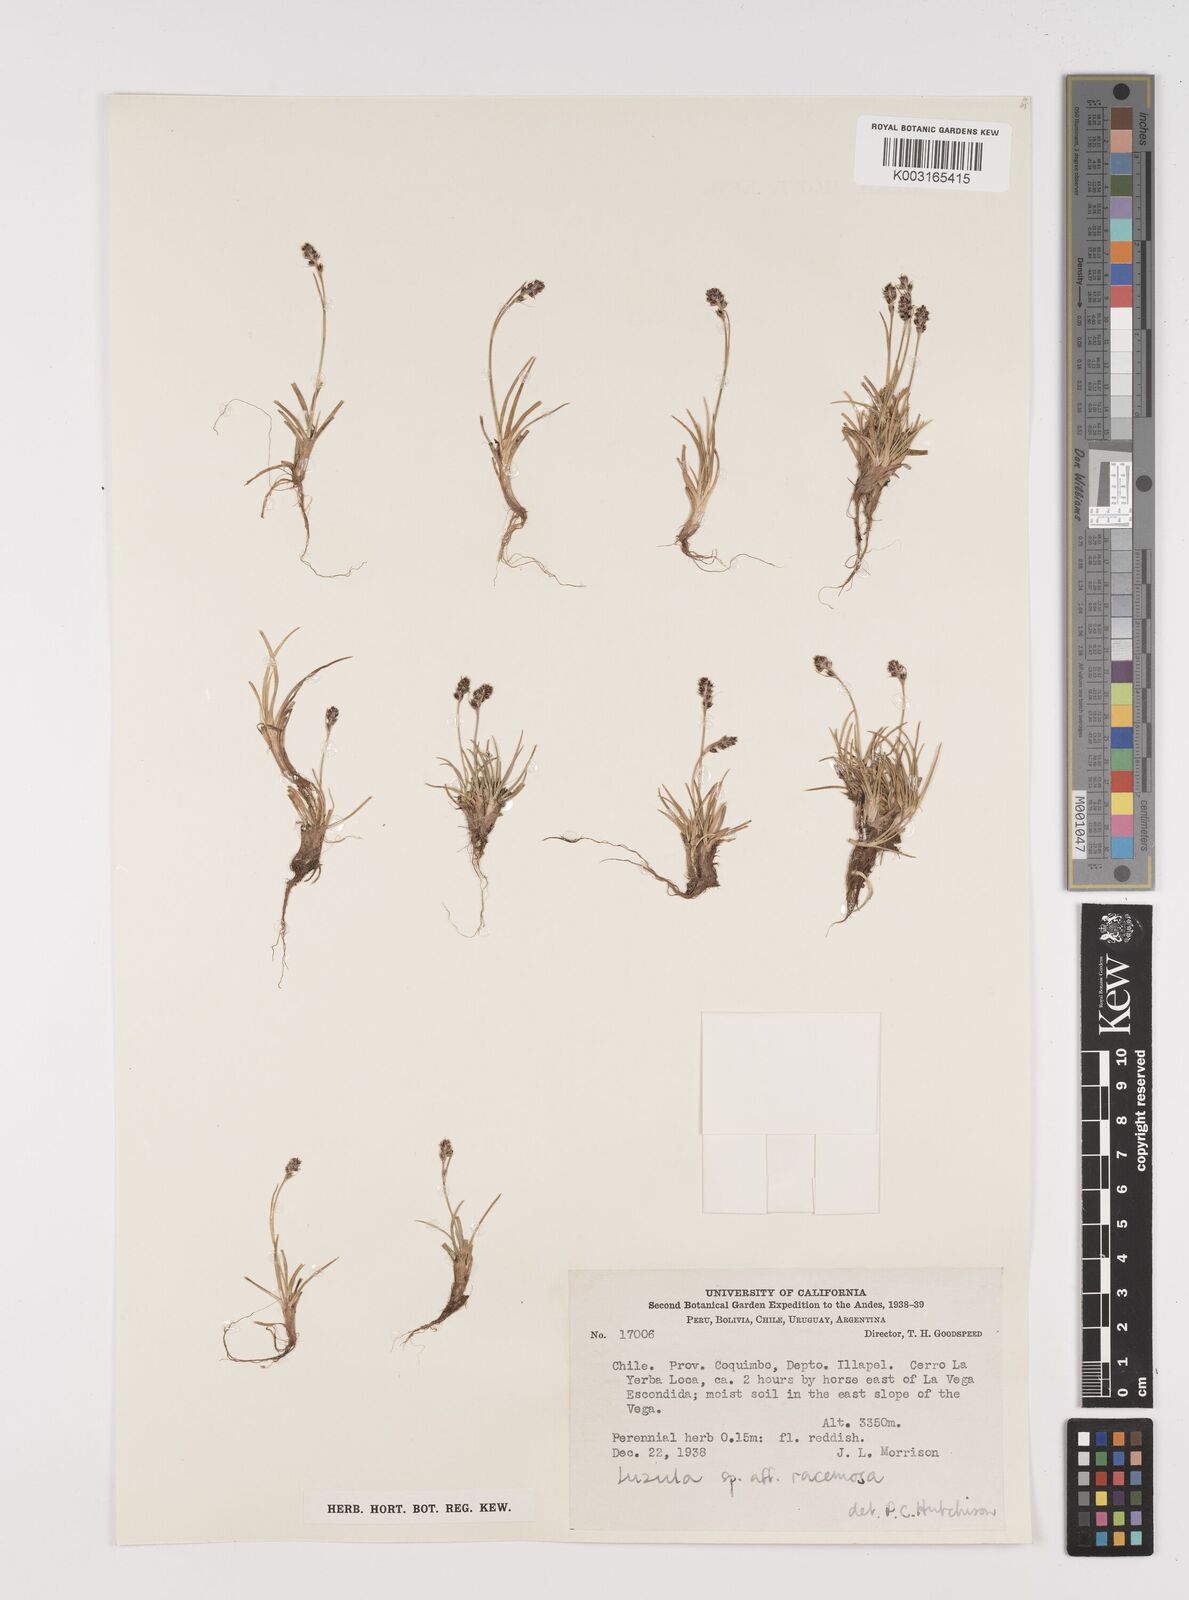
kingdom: Plantae
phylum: Tracheophyta
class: Liliopsida
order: Poales
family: Juncaceae
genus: Luzula
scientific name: Luzula racemosa
